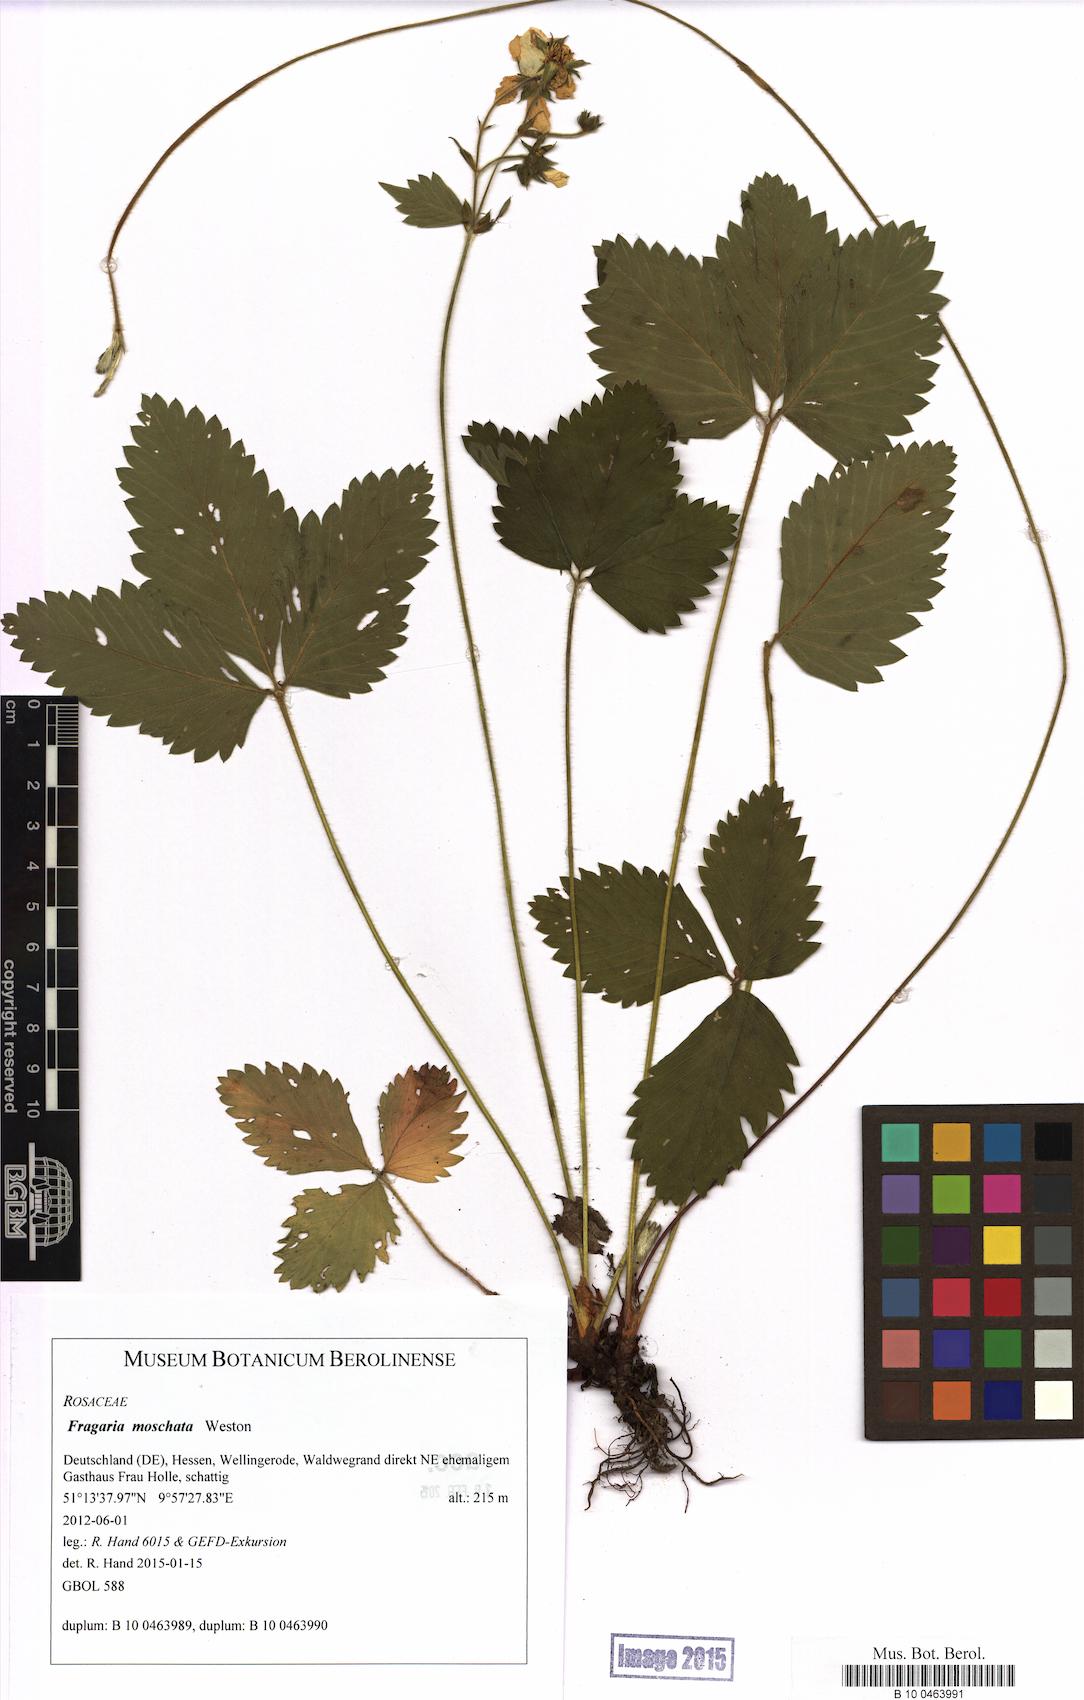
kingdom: Plantae
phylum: Tracheophyta
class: Magnoliopsida
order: Rosales
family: Rosaceae
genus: Fragaria
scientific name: Fragaria moschata
